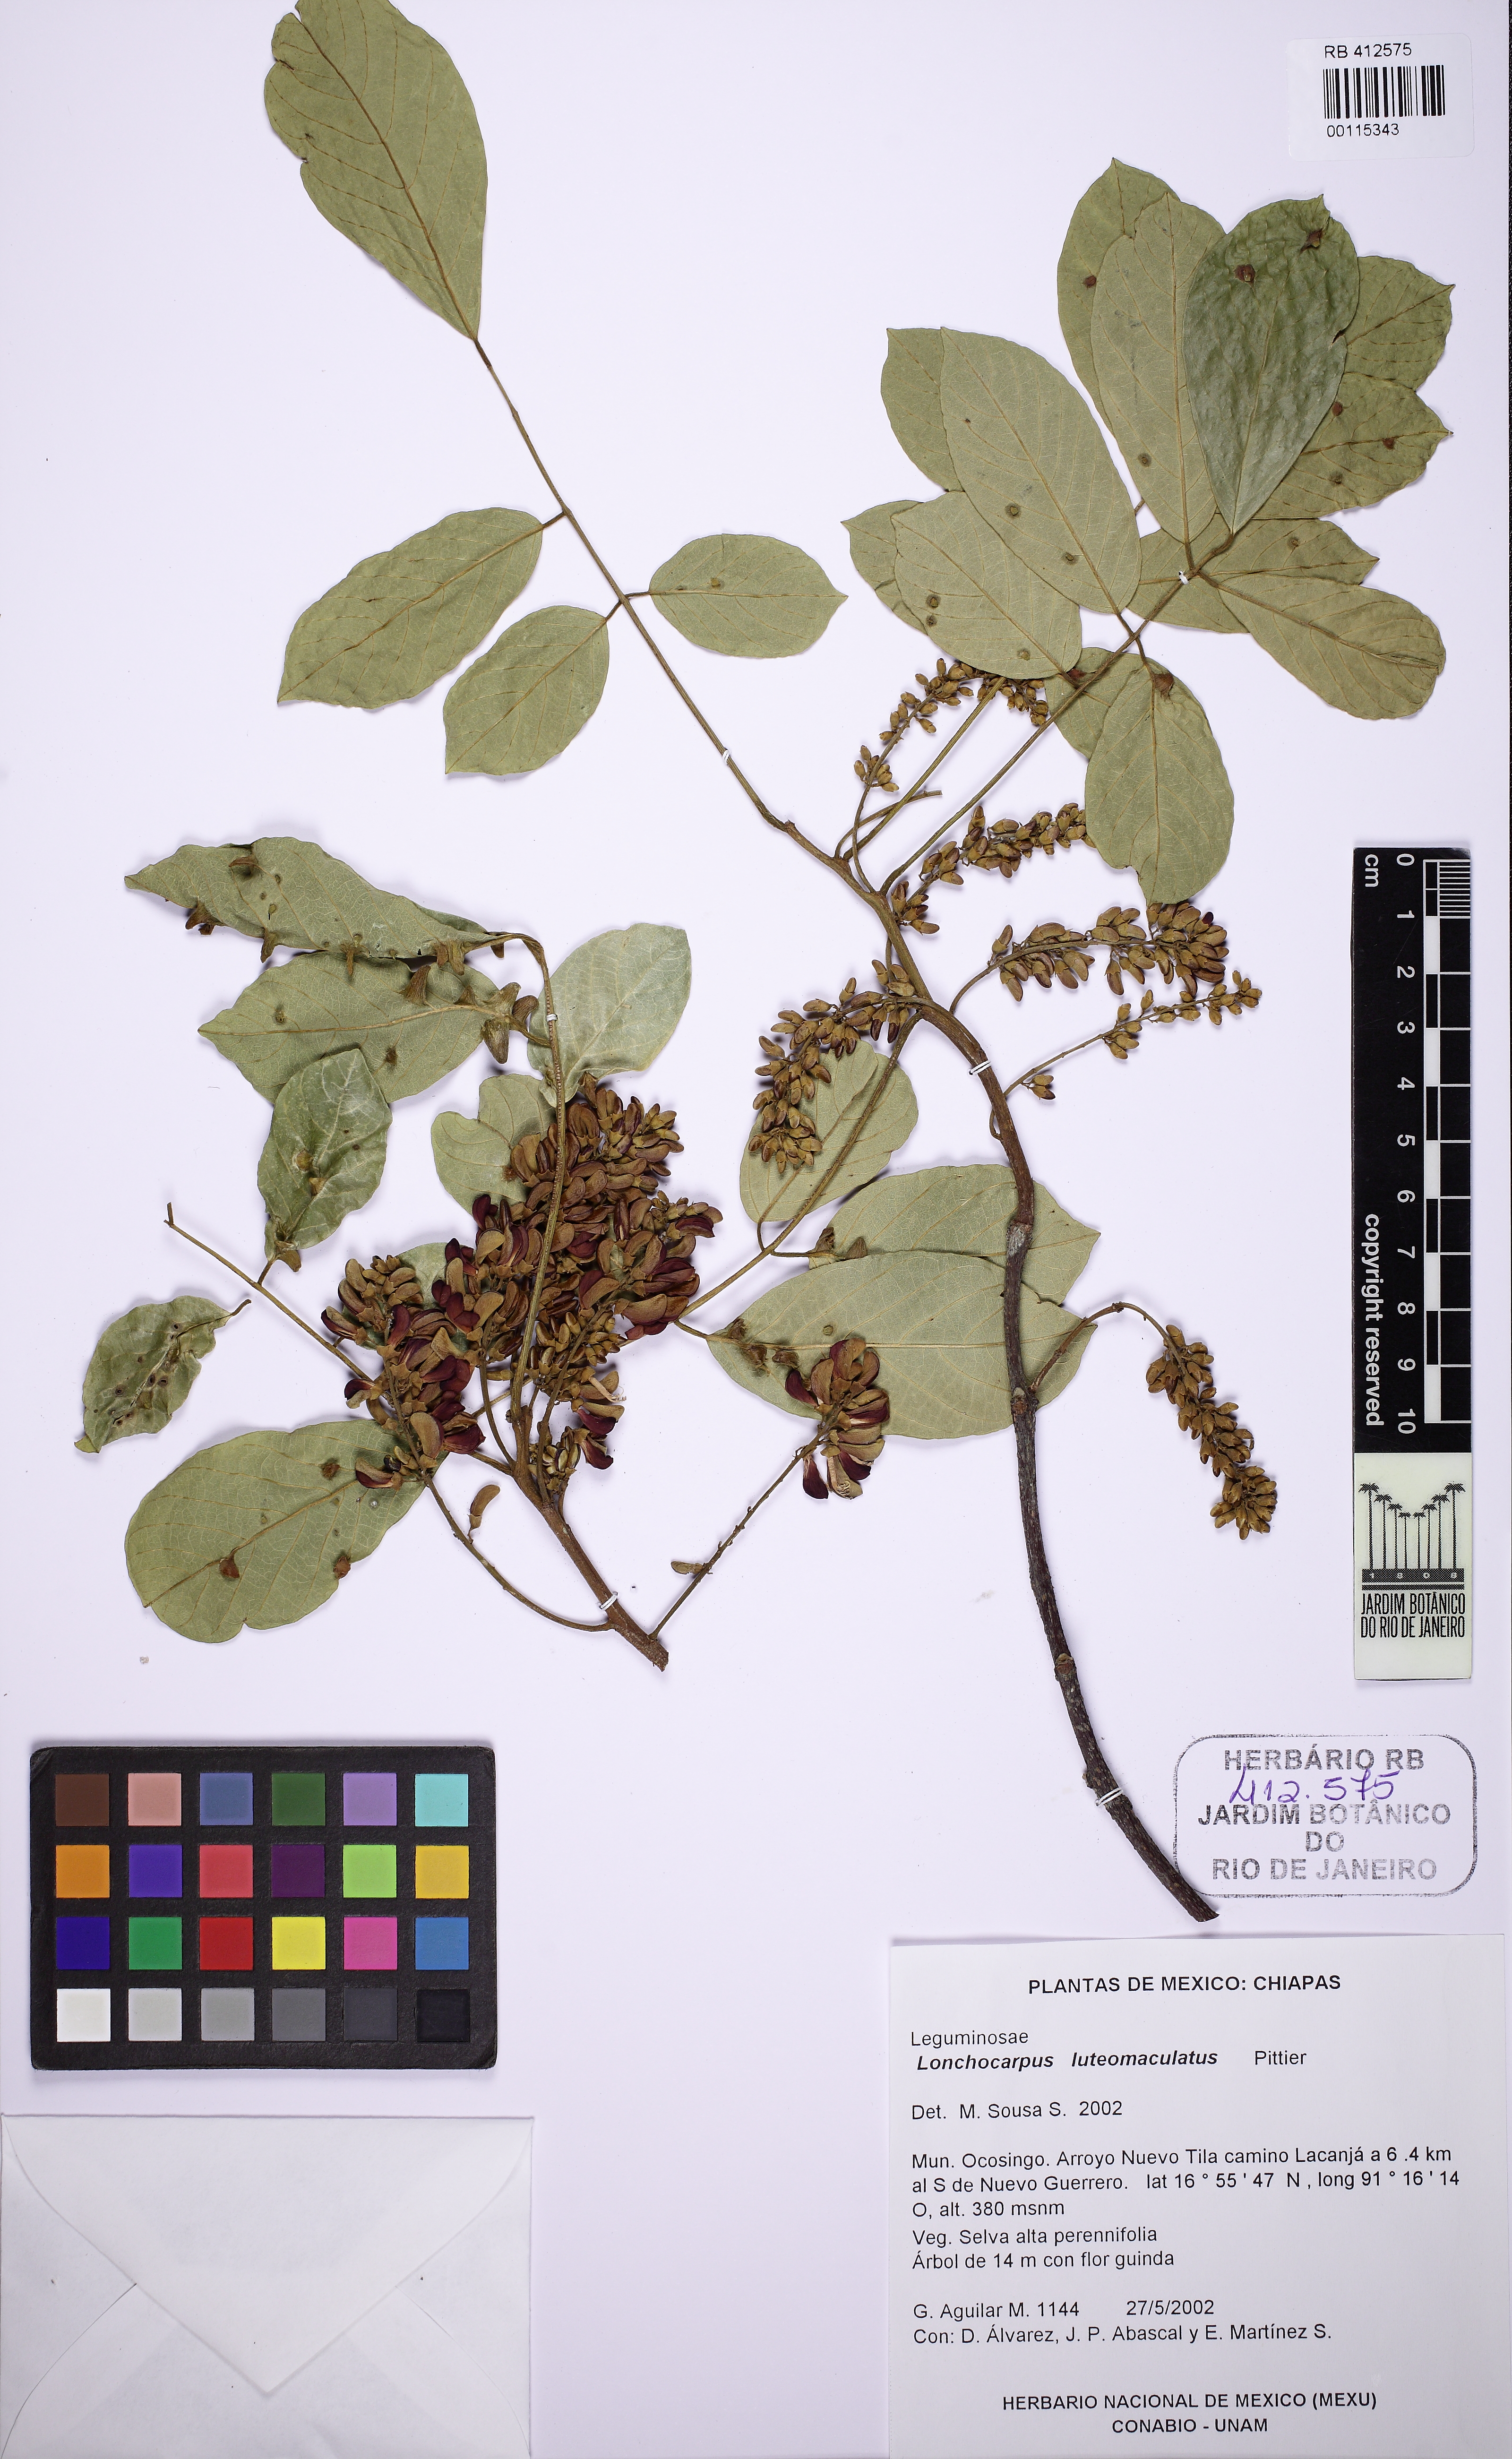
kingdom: Plantae
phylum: Tracheophyta
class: Magnoliopsida
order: Fabales
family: Fabaceae
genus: Lonchocarpus
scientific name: Lonchocarpus luteomaculatus
